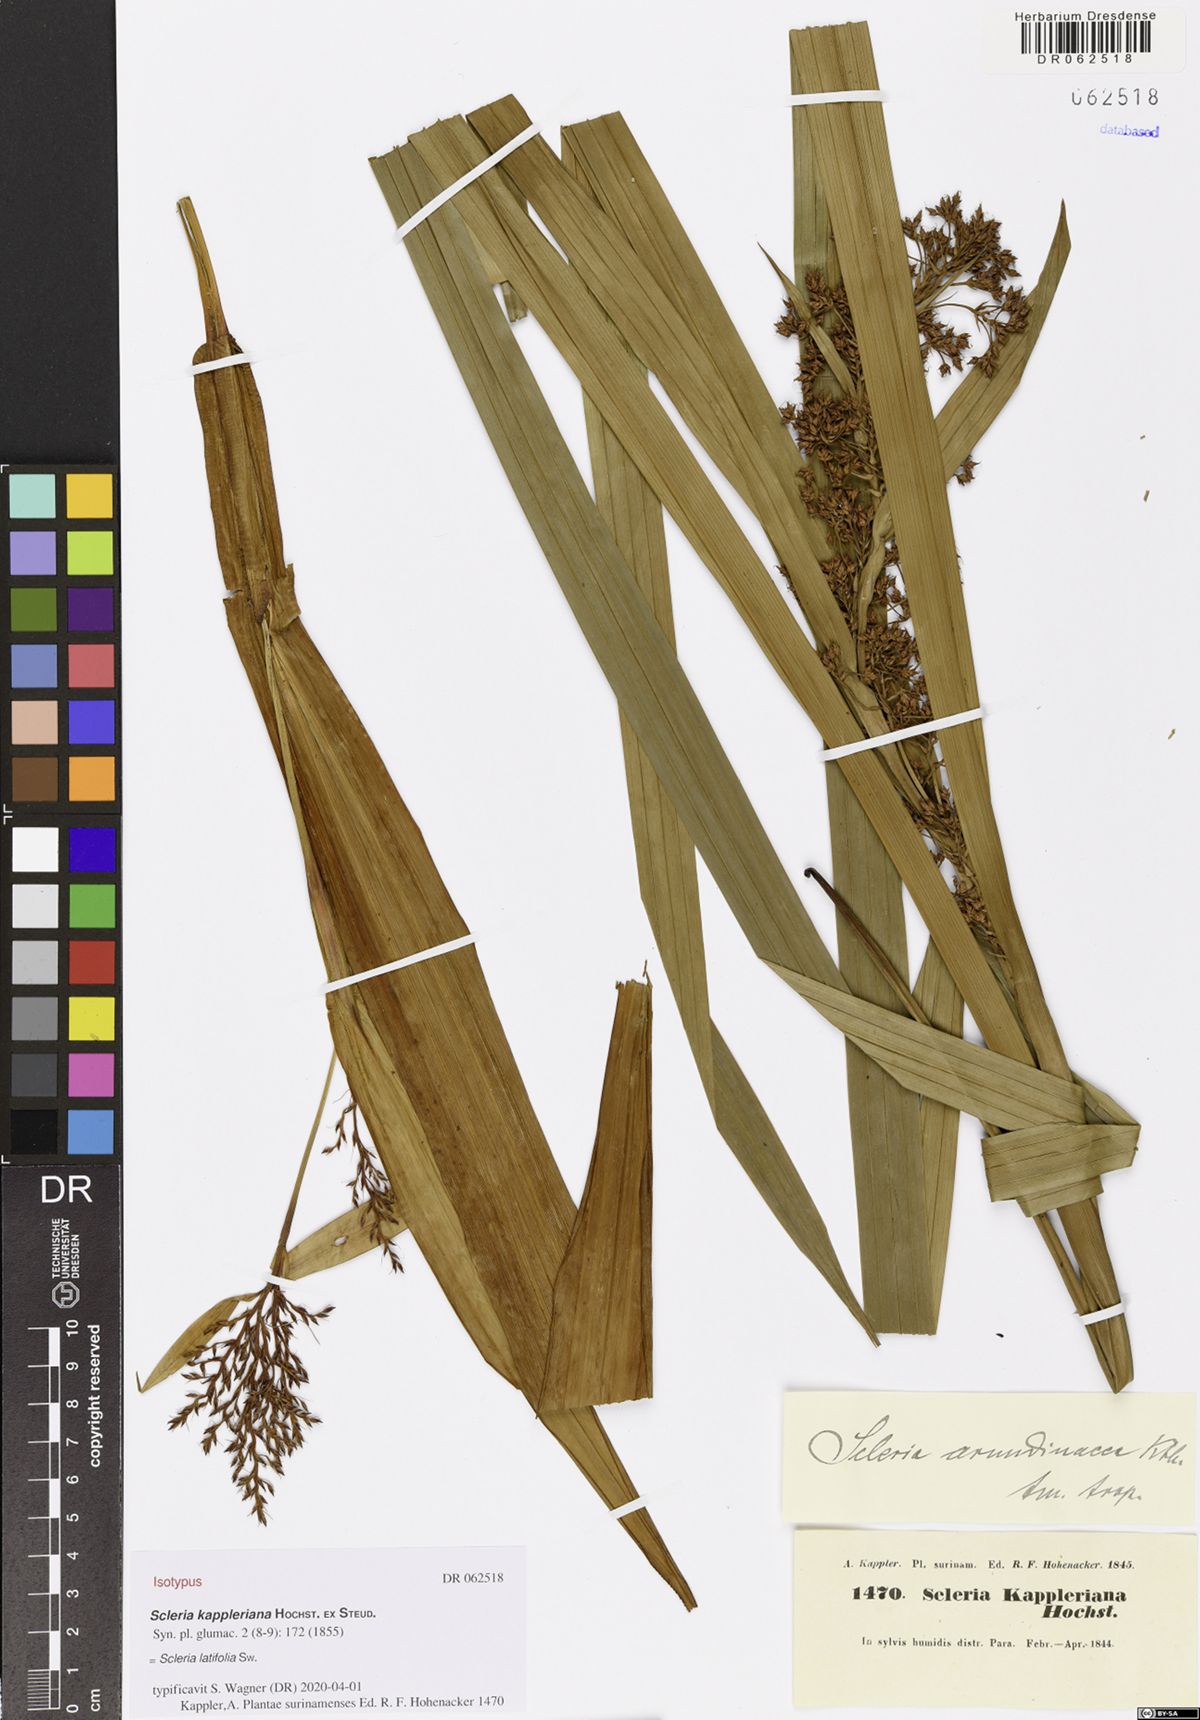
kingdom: Plantae
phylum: Tracheophyta
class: Liliopsida
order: Poales
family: Cyperaceae
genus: Scleria
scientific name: Scleria latifolia
